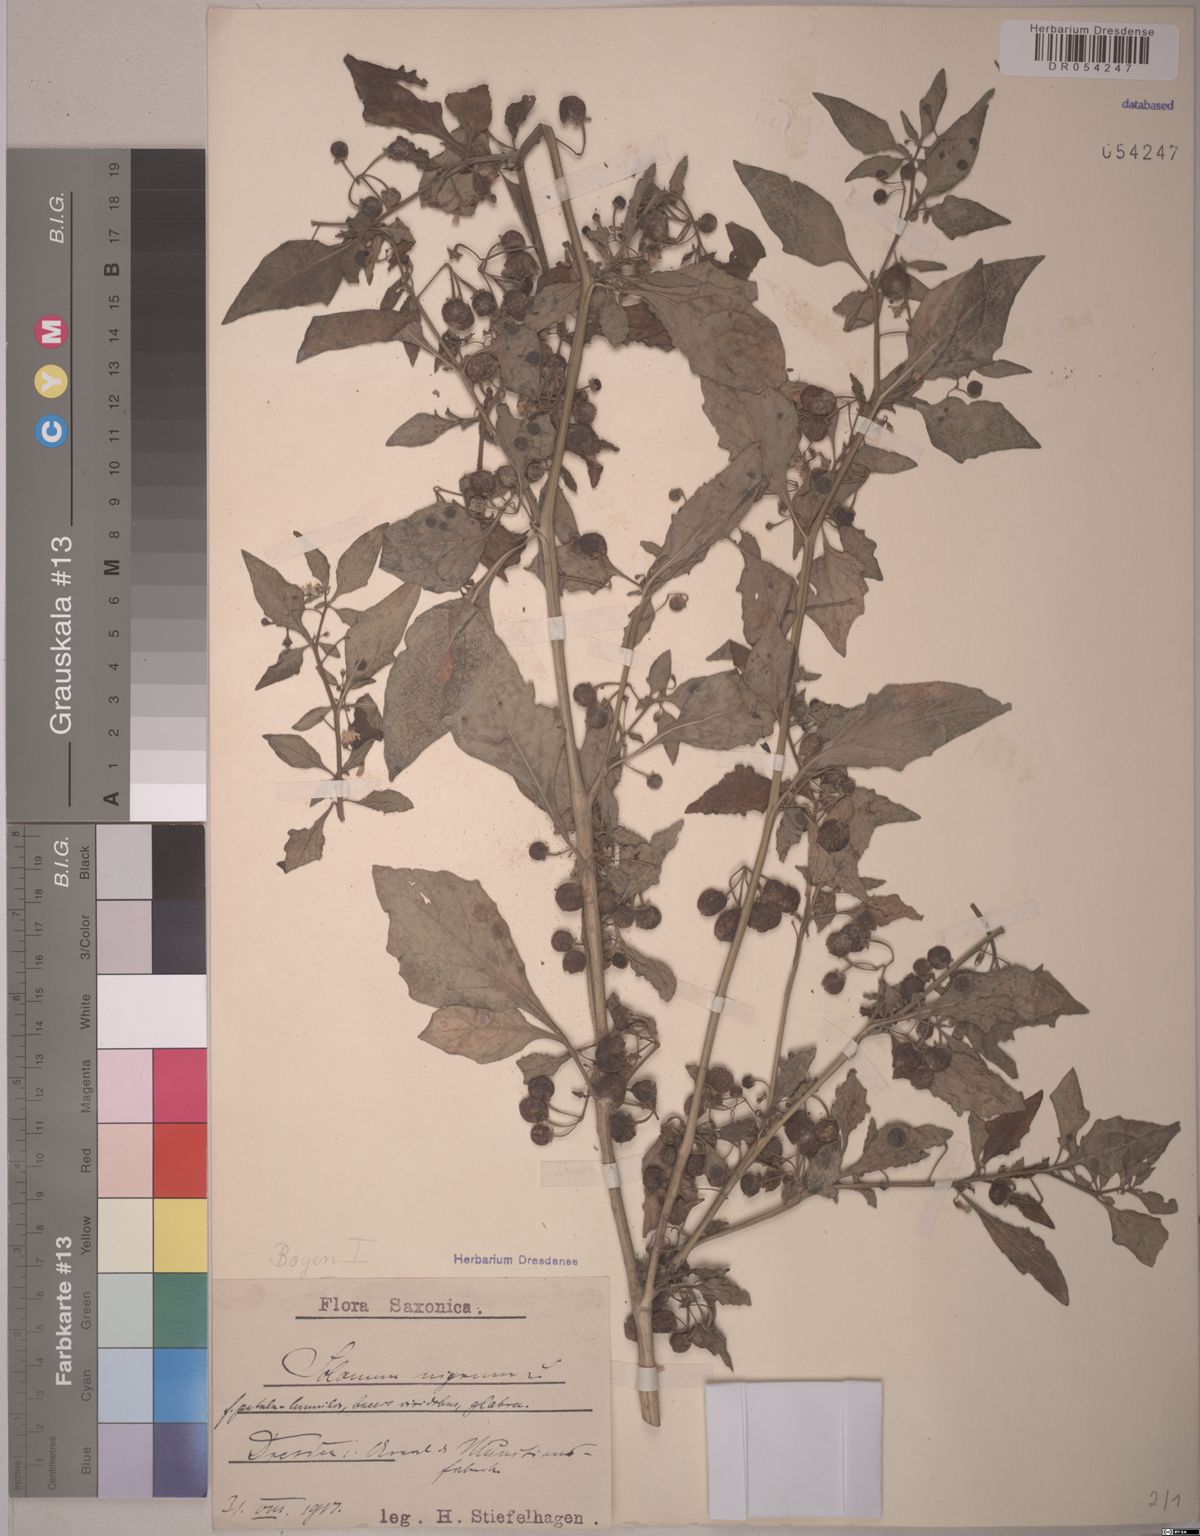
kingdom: Plantae
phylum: Tracheophyta
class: Magnoliopsida
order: Solanales
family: Solanaceae
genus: Solanum
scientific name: Solanum nigrum
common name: Black nightshade
